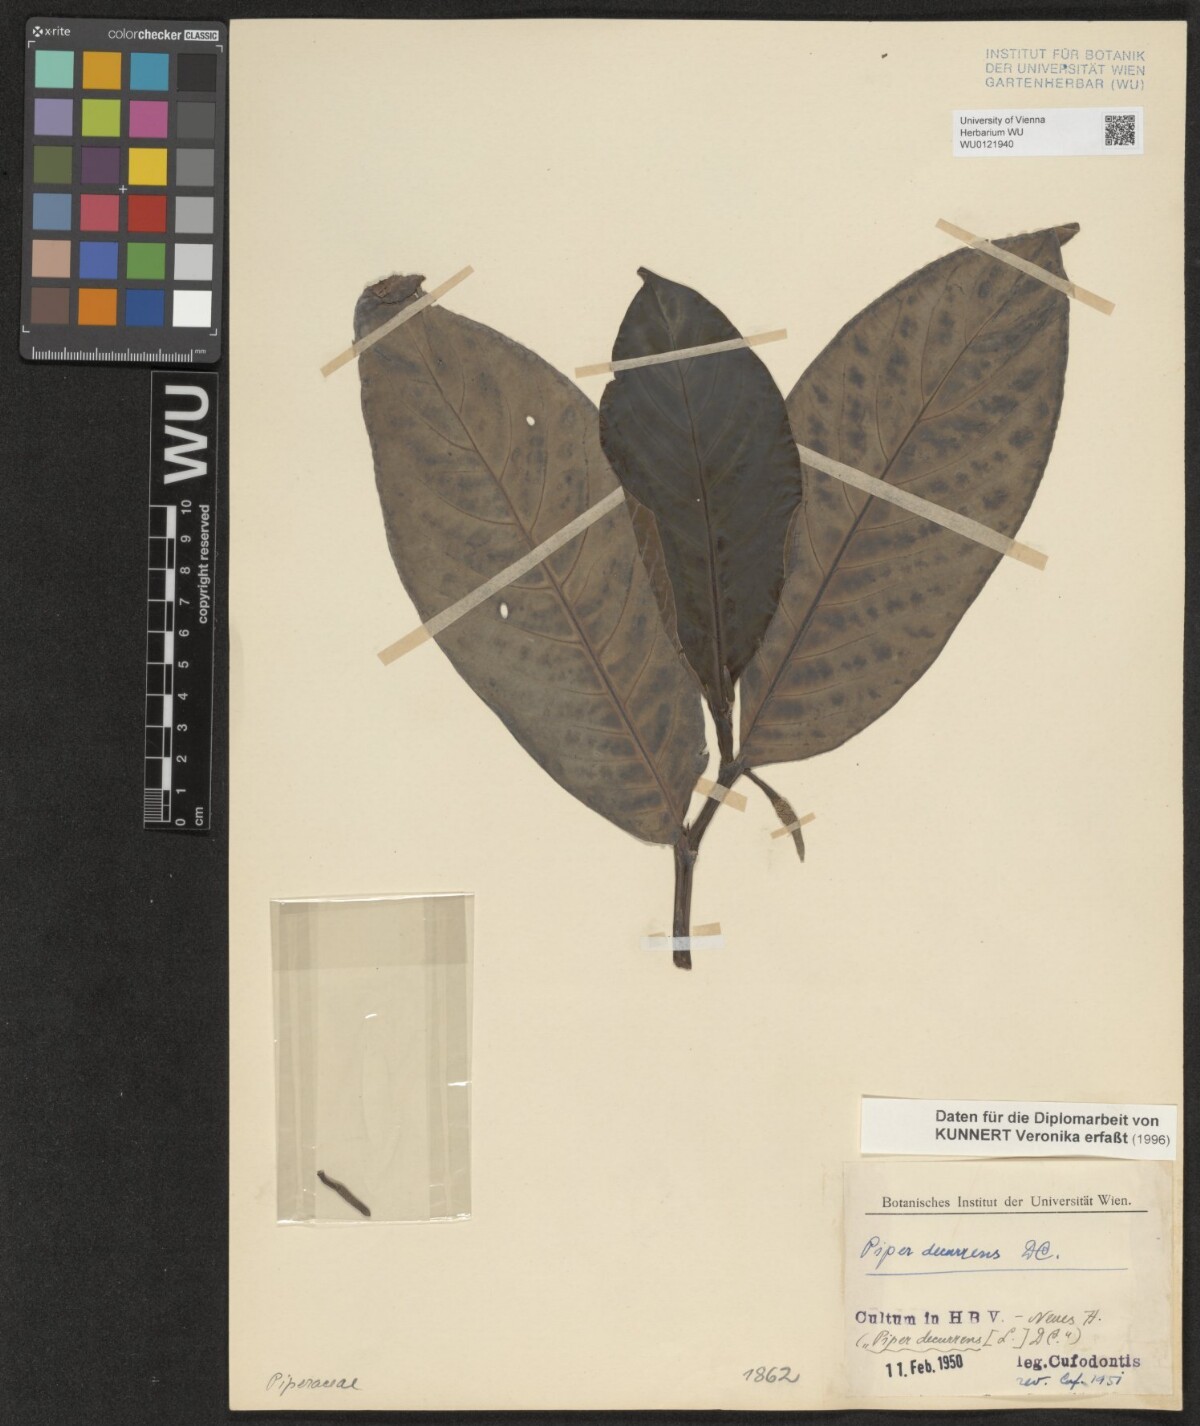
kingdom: Plantae
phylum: Tracheophyta
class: Magnoliopsida
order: Piperales
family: Piperaceae
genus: Piper
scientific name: Piper decurrens
